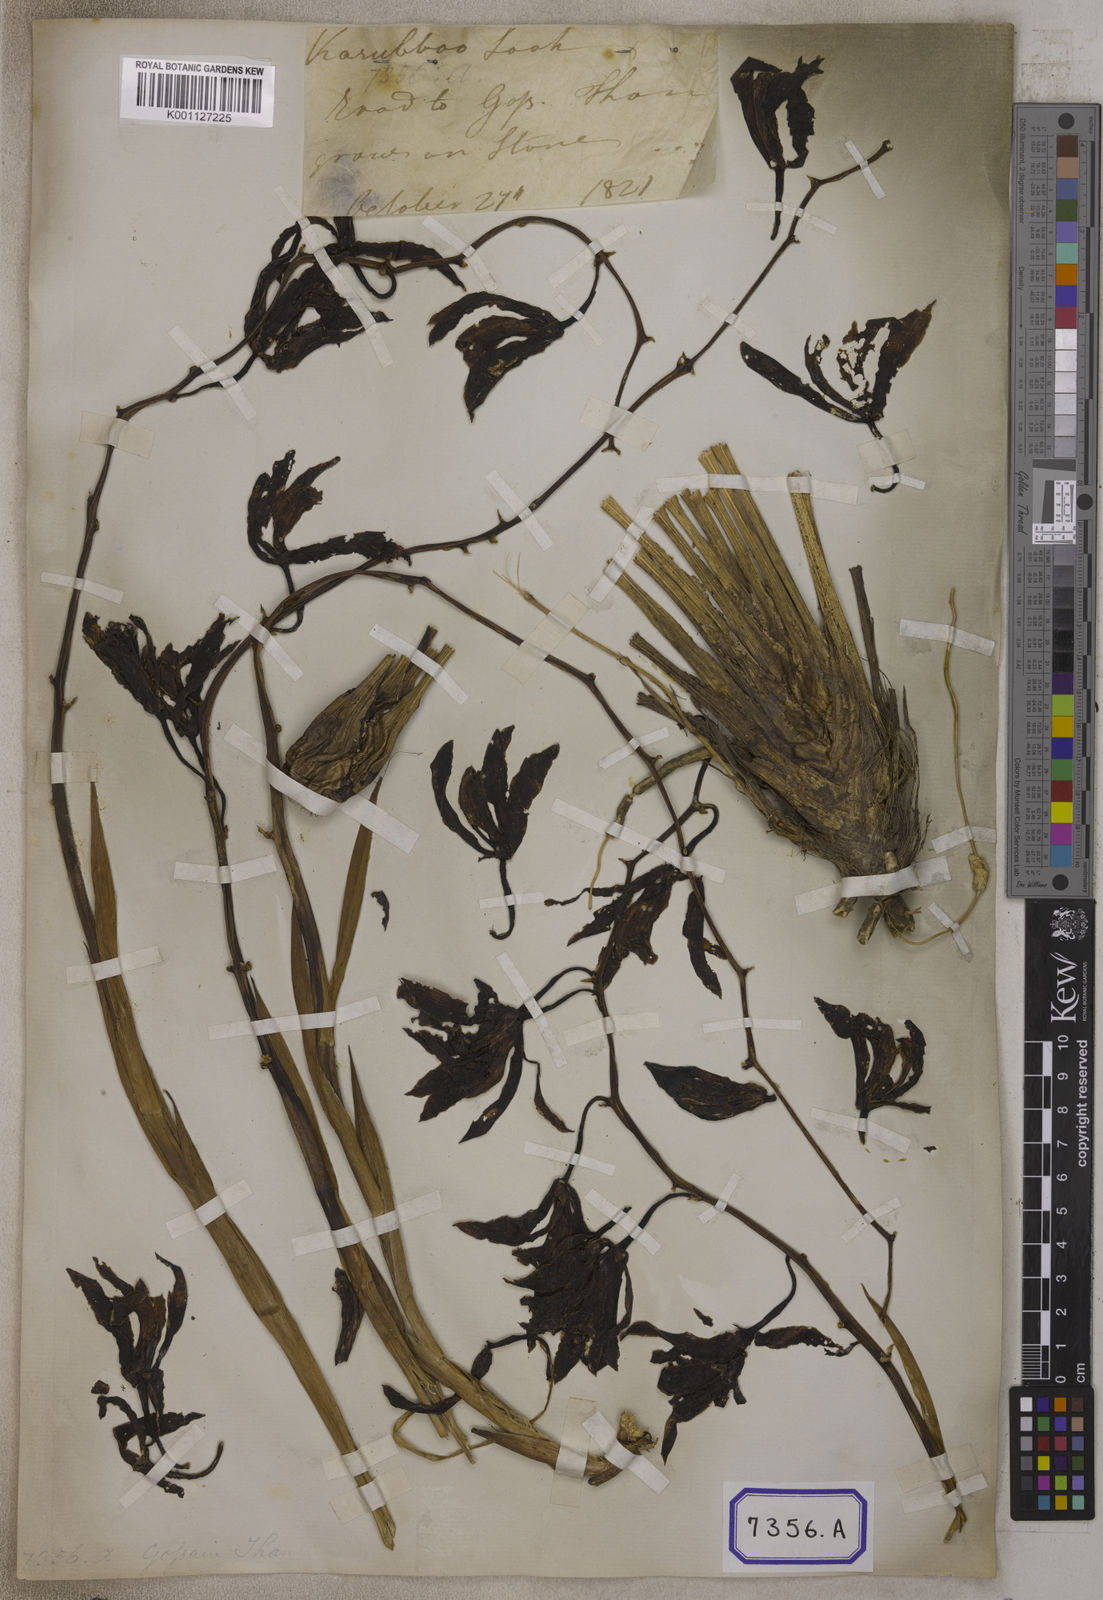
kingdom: Plantae
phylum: Tracheophyta
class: Liliopsida
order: Asparagales
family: Orchidaceae
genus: Cymbidium
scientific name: Cymbidium elegans
